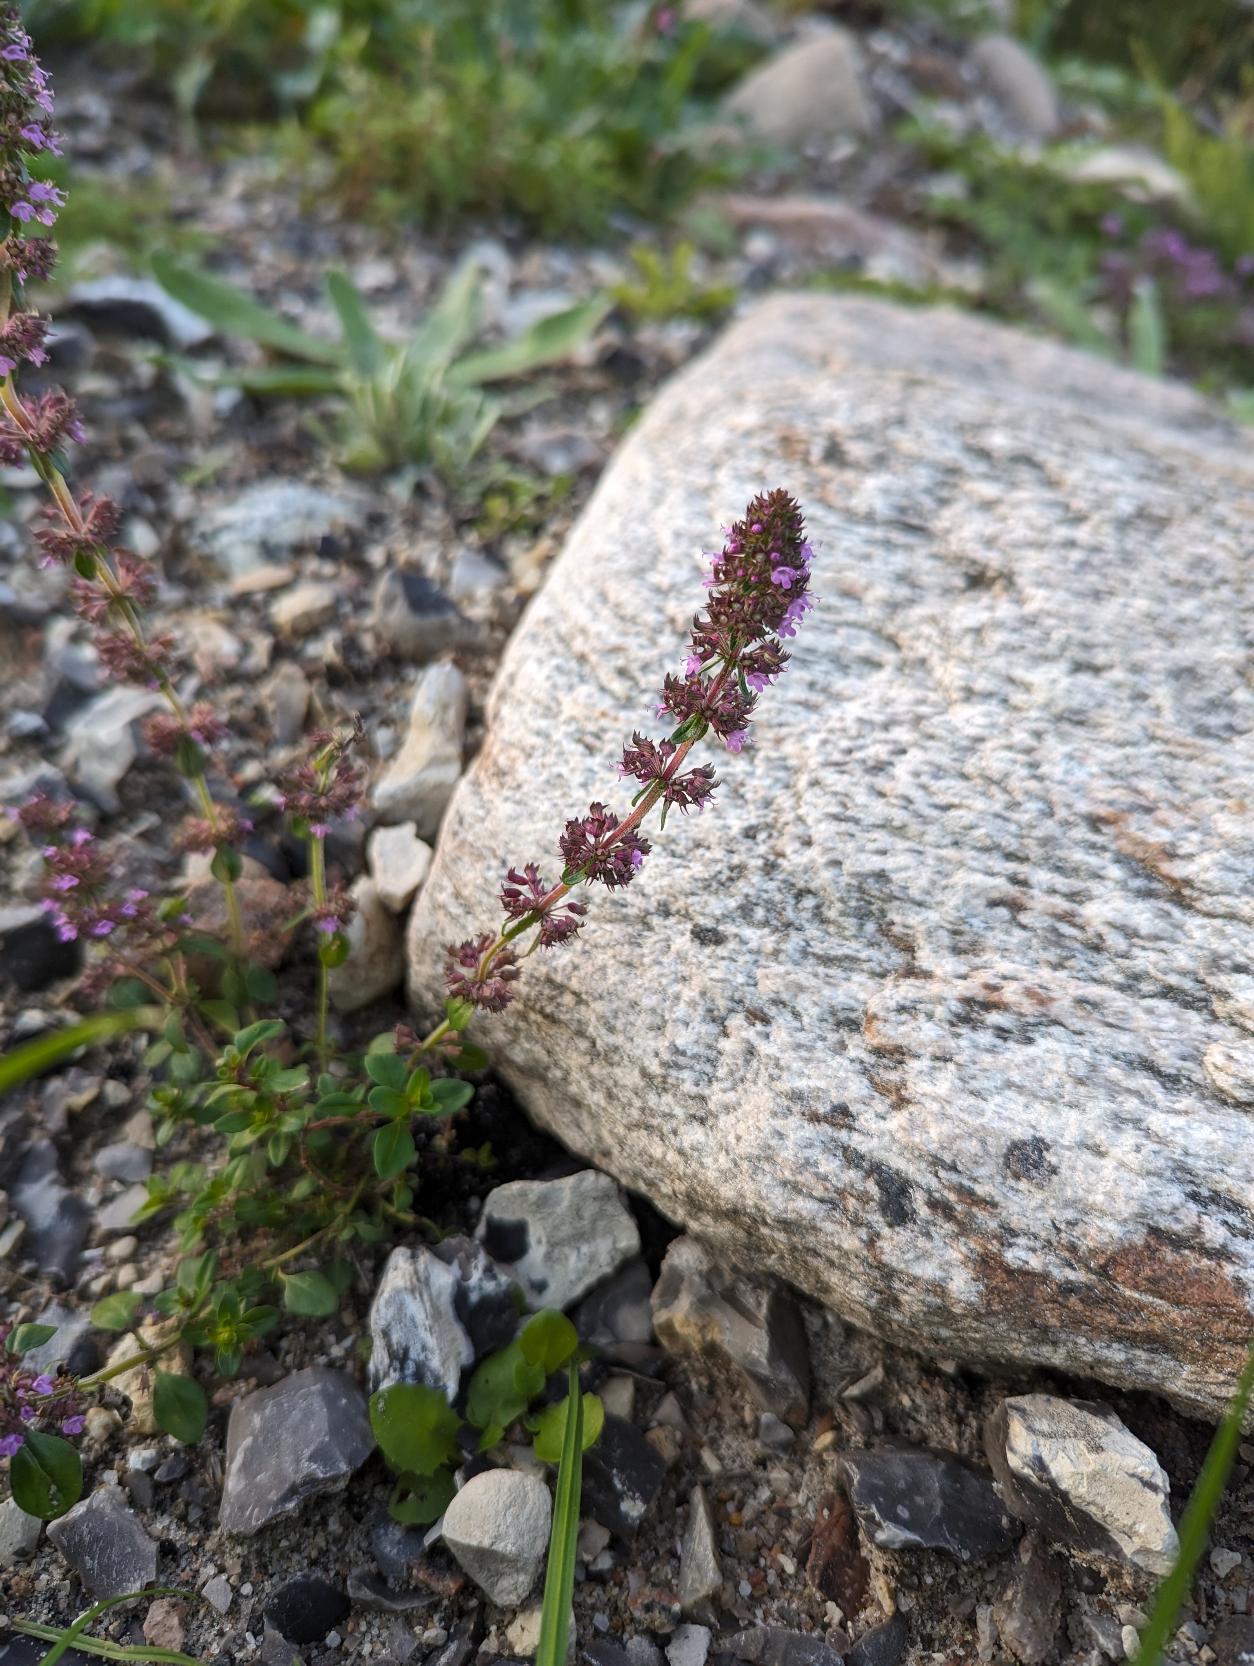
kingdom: Plantae
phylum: Tracheophyta
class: Magnoliopsida
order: Lamiales
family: Lamiaceae
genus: Thymus
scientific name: Thymus pulegioides
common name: Bredbladet timian
